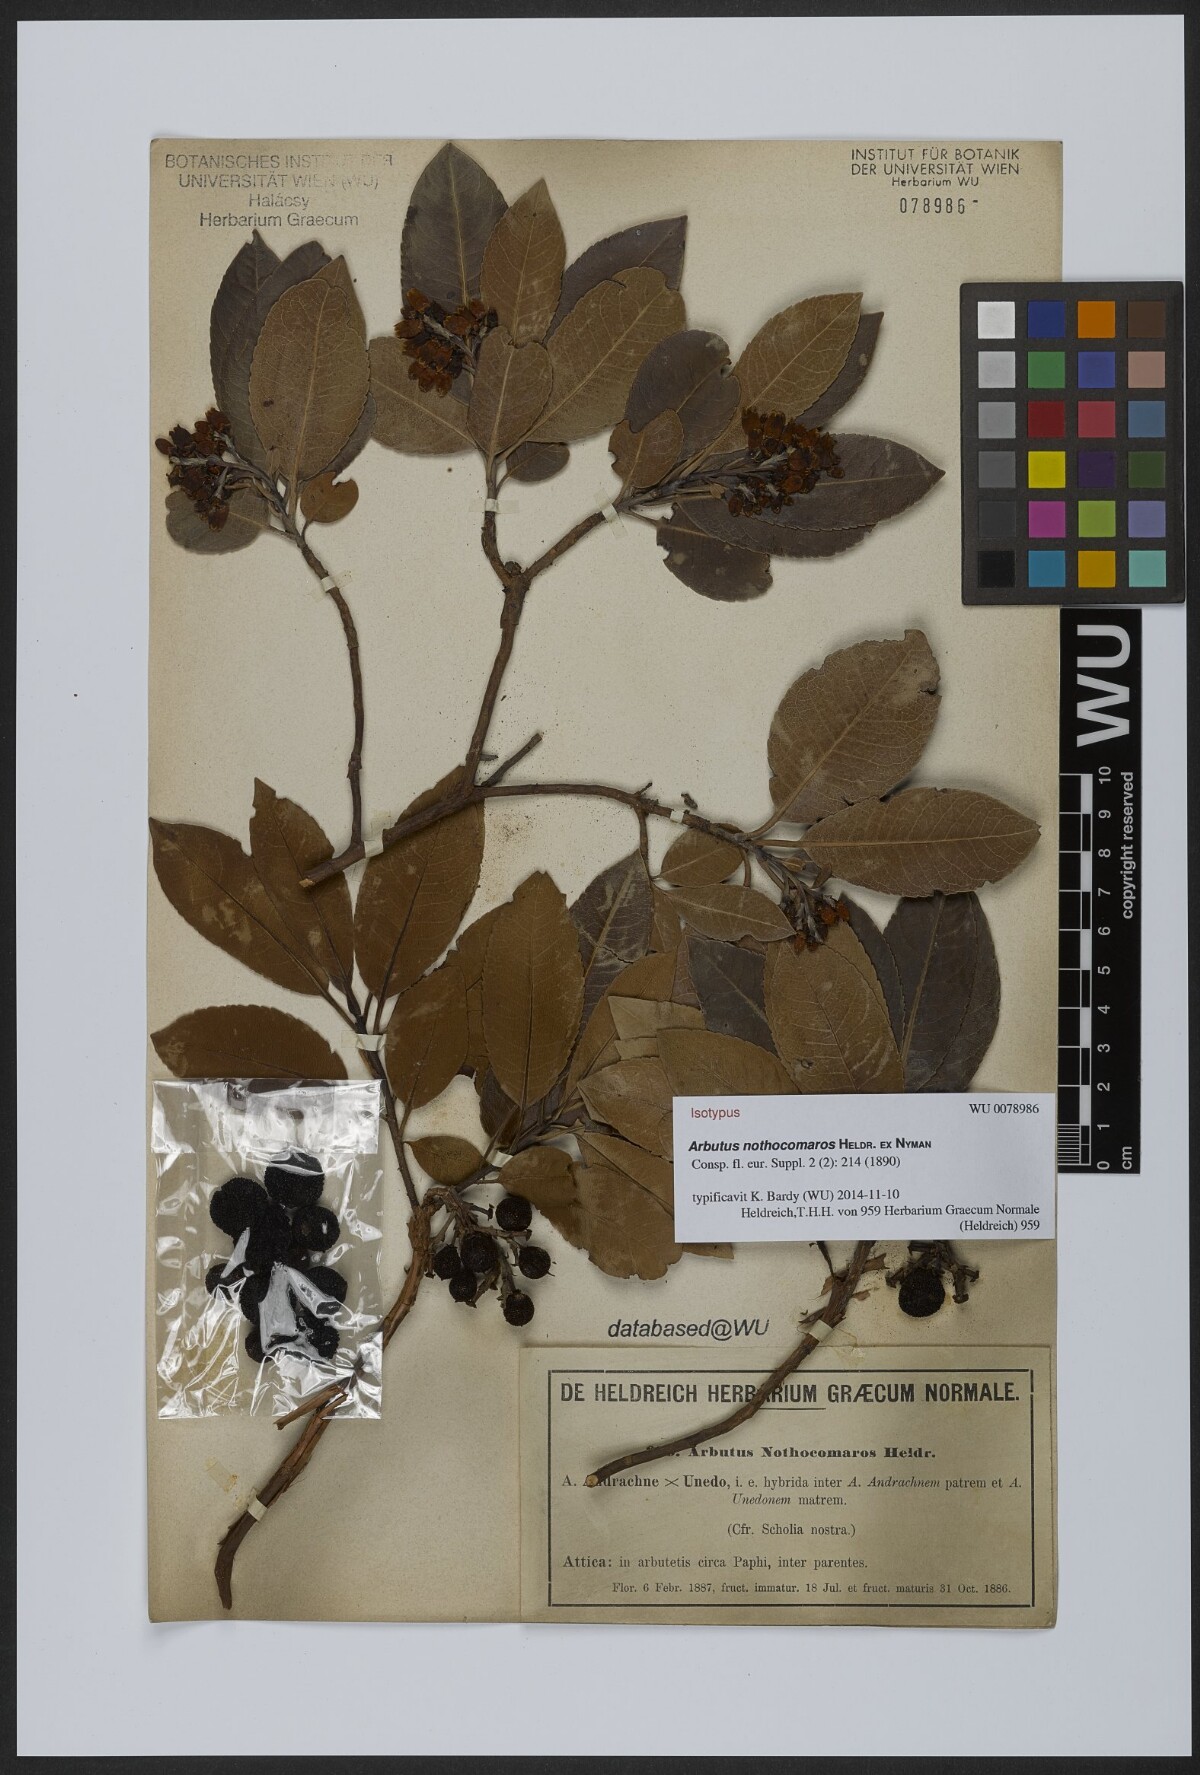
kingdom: Plantae
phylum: Tracheophyta
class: Magnoliopsida
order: Ericales
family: Ericaceae
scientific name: Ericaceae
